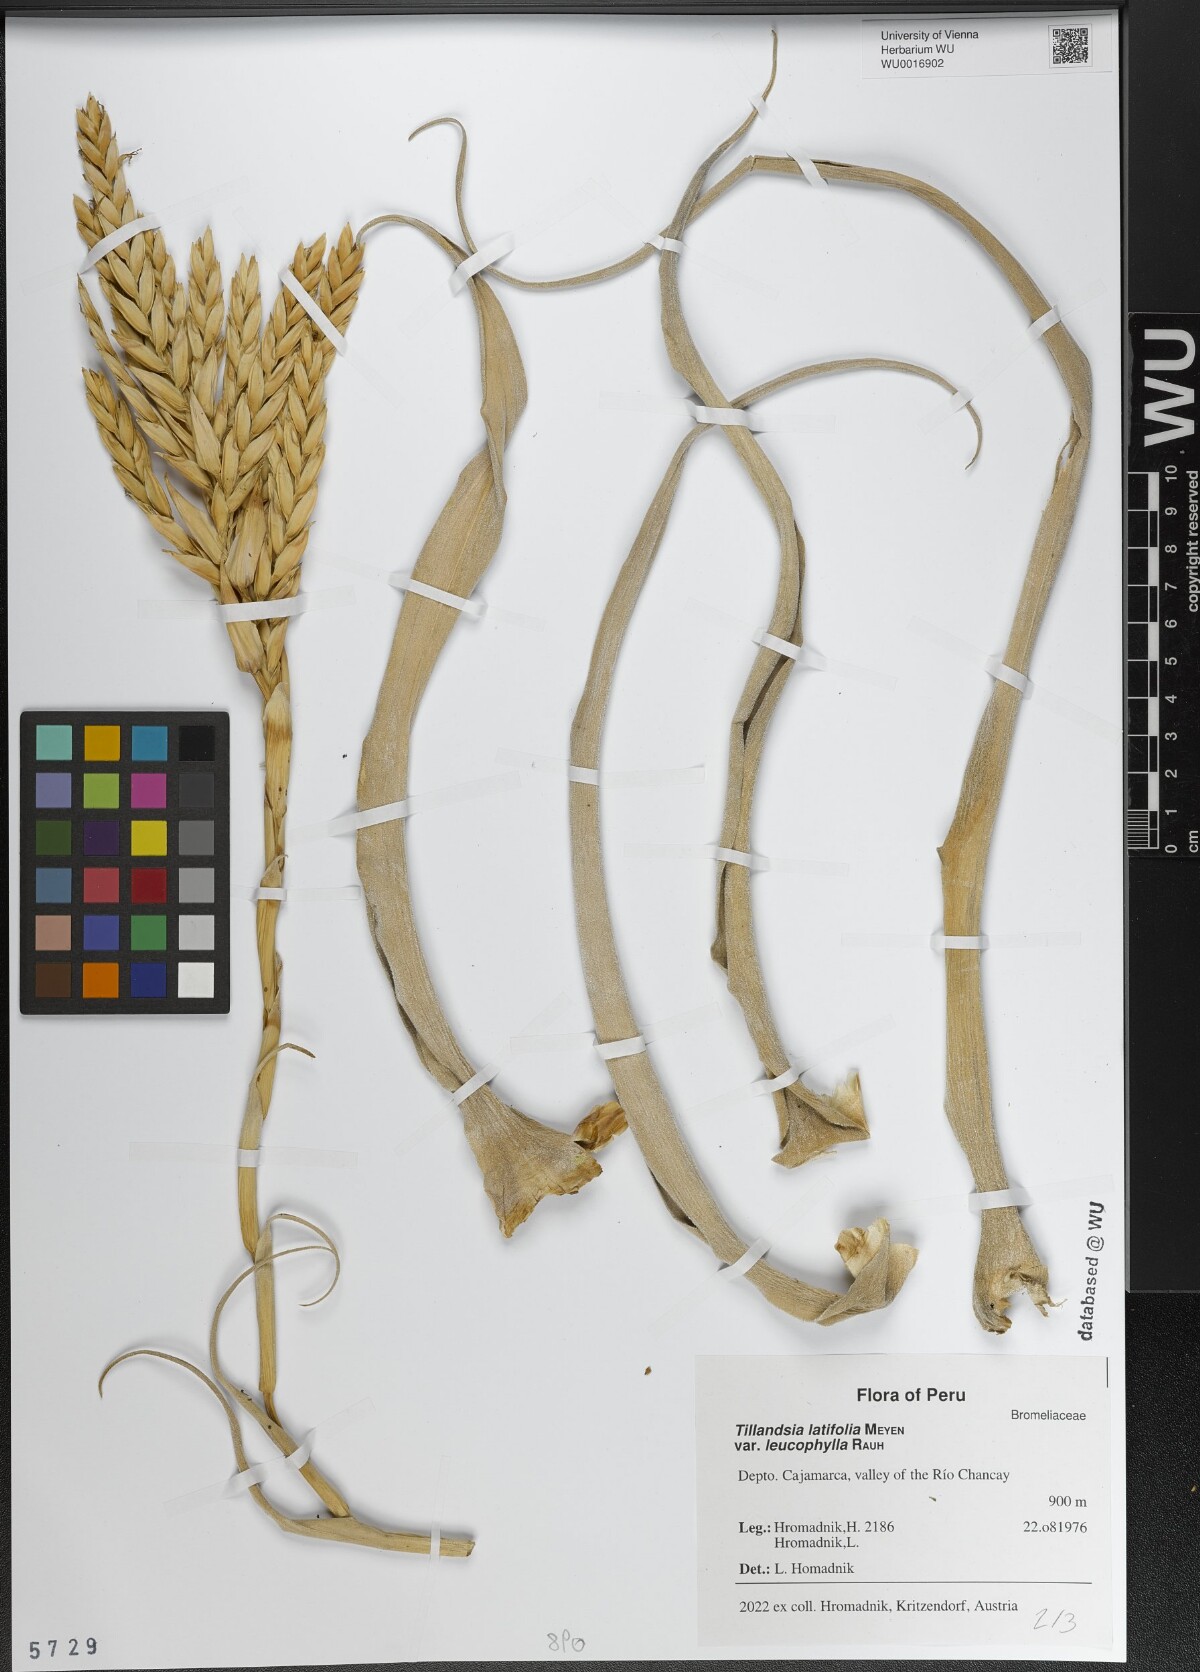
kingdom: Plantae
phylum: Tracheophyta
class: Liliopsida
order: Poales
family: Bromeliaceae
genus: Tillandsia
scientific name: Tillandsia latifolia
